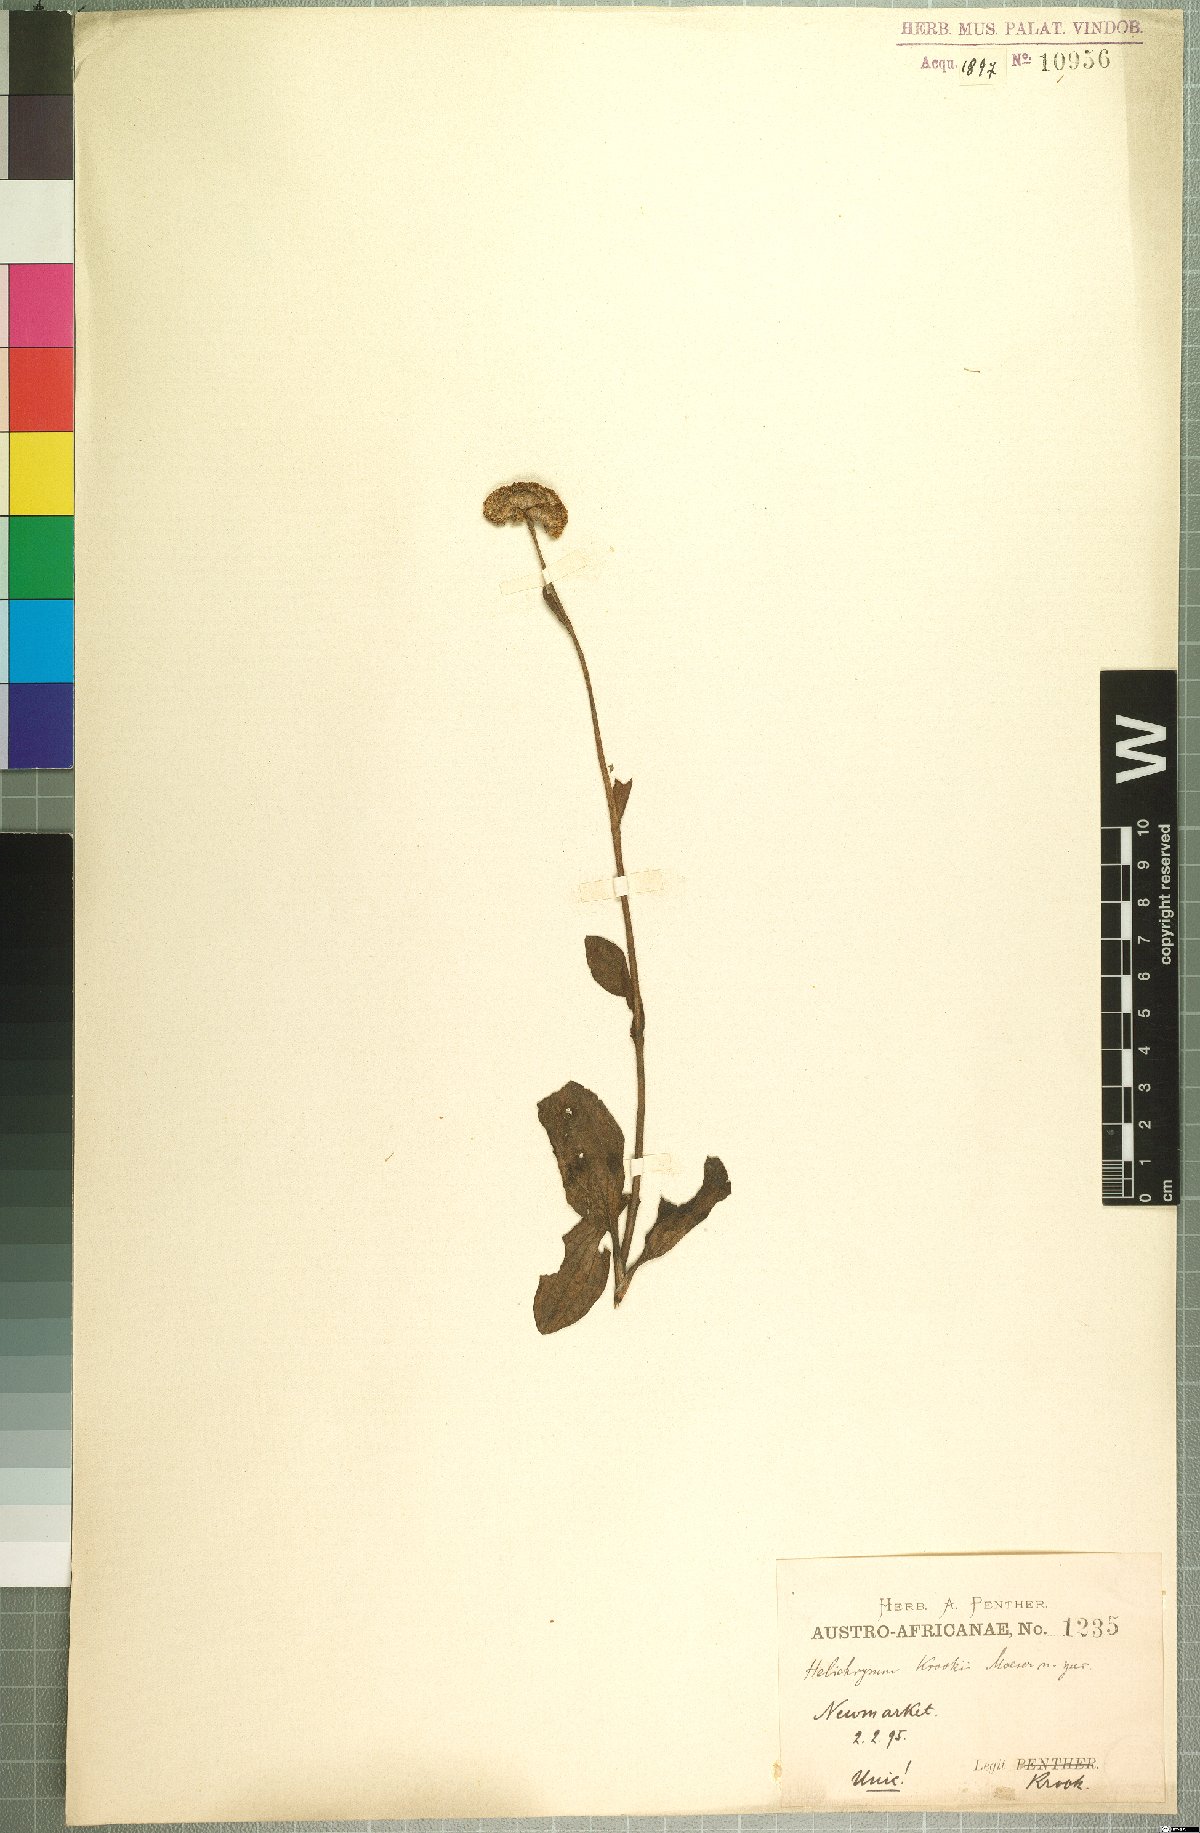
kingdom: Plantae
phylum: Tracheophyta
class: Magnoliopsida
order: Asterales
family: Asteraceae
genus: Helichrysum
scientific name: Helichrysum krookii
